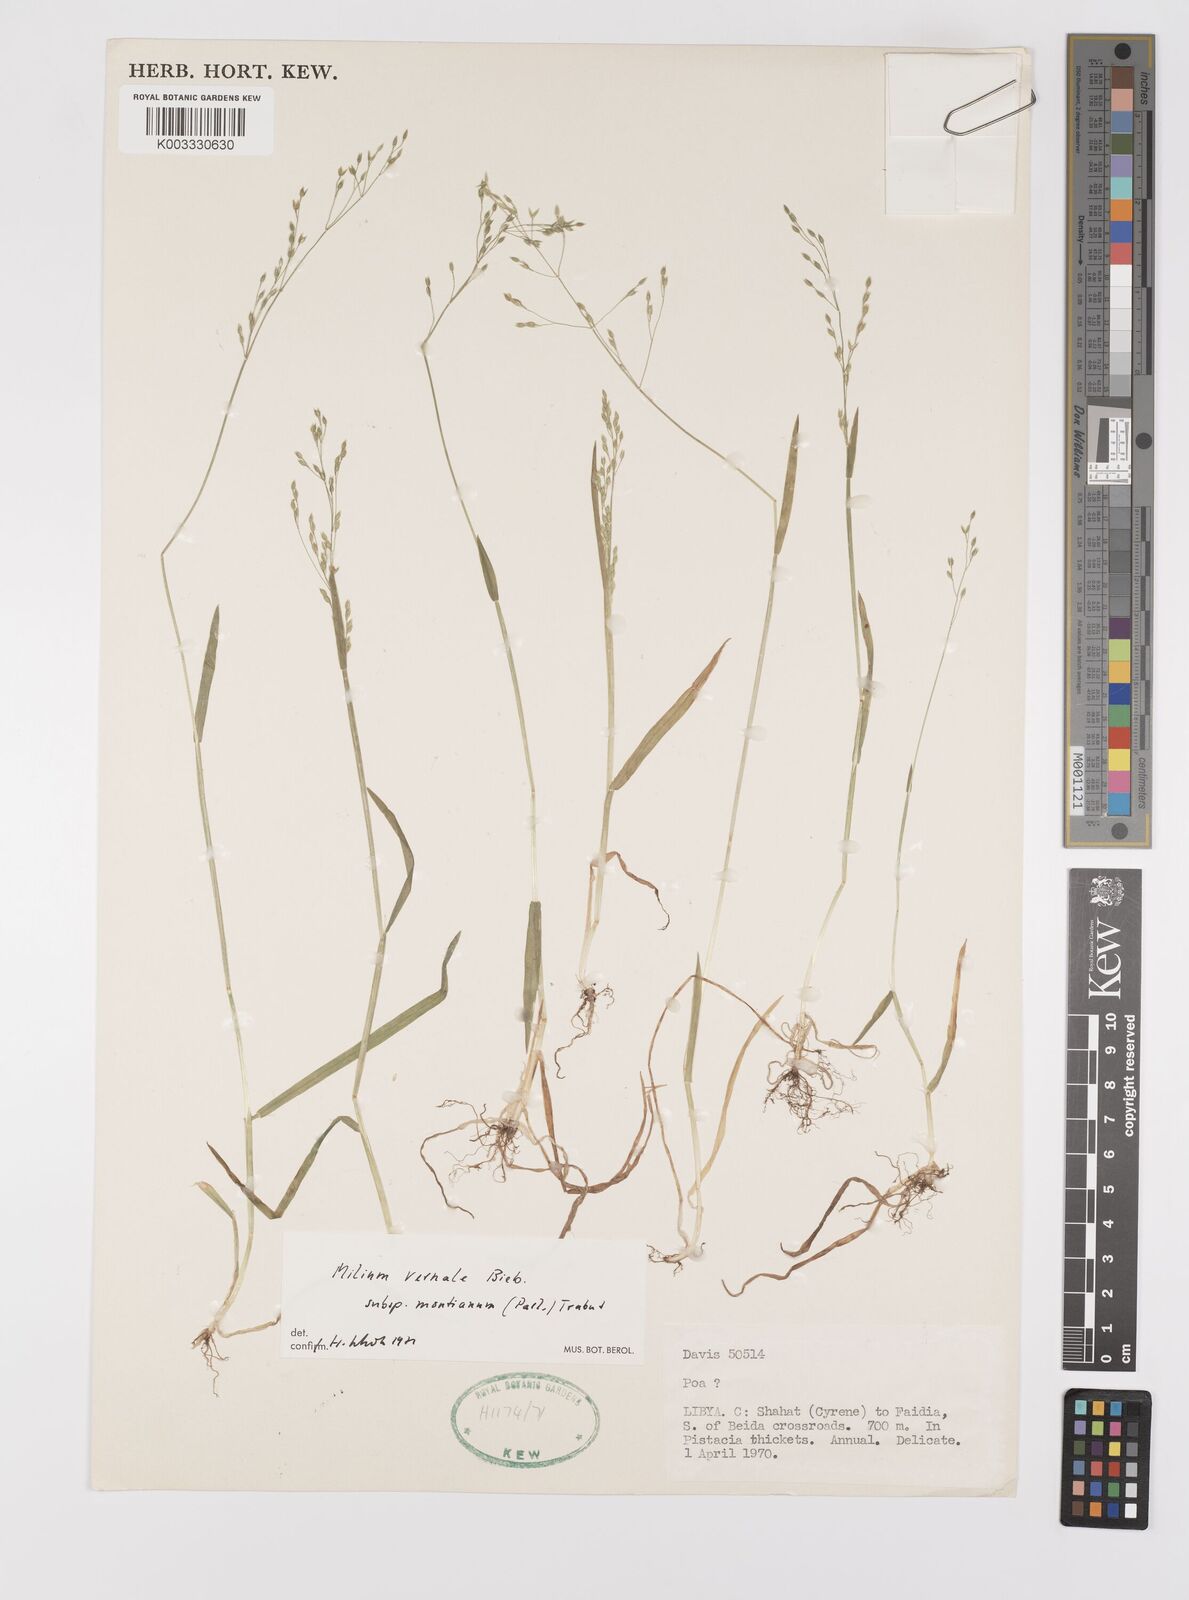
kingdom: Plantae
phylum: Tracheophyta
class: Liliopsida
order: Poales
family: Poaceae
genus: Milium
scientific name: Milium vernale
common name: Early millet
